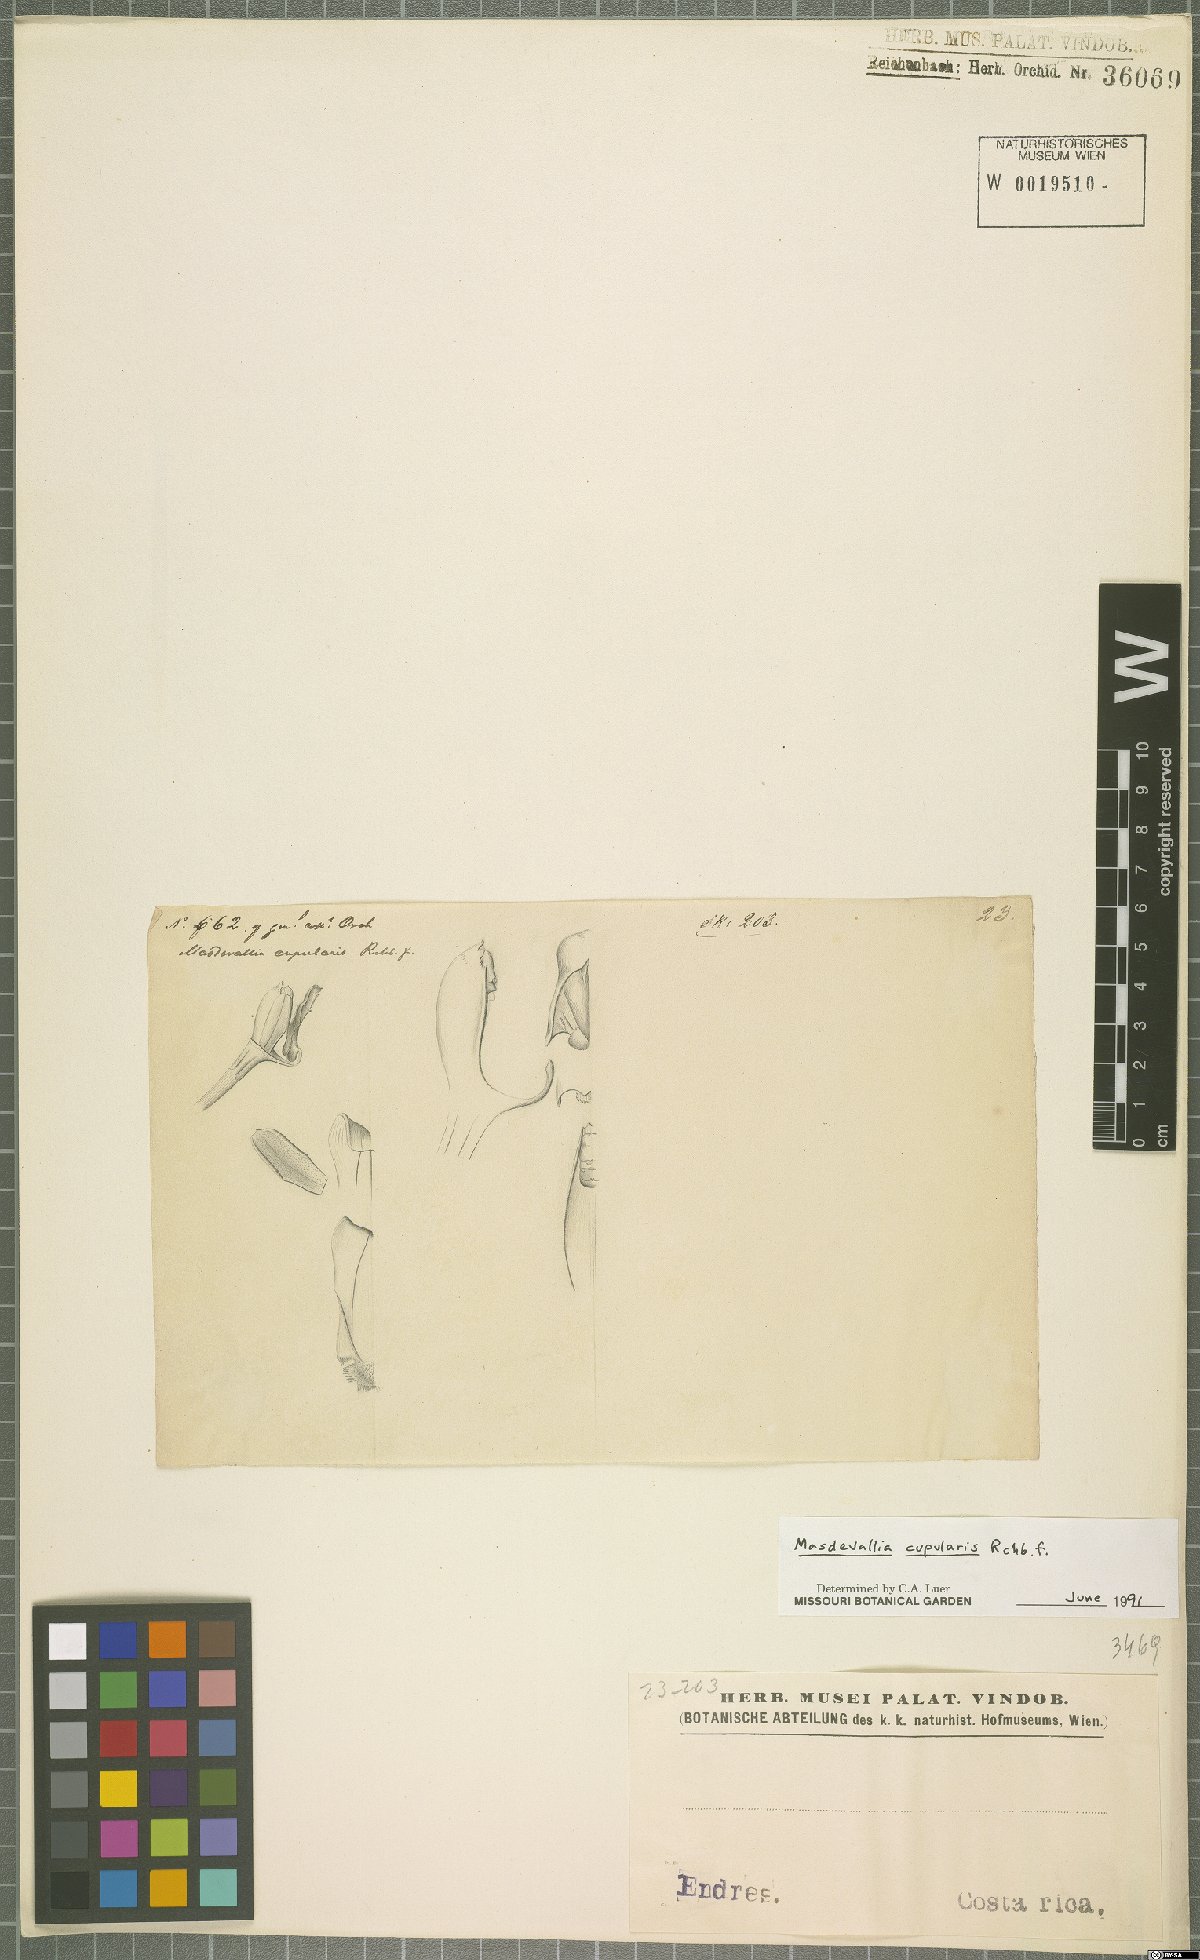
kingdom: Plantae
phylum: Tracheophyta
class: Liliopsida
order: Asparagales
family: Orchidaceae
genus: Masdevallia
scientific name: Masdevallia cupularis
